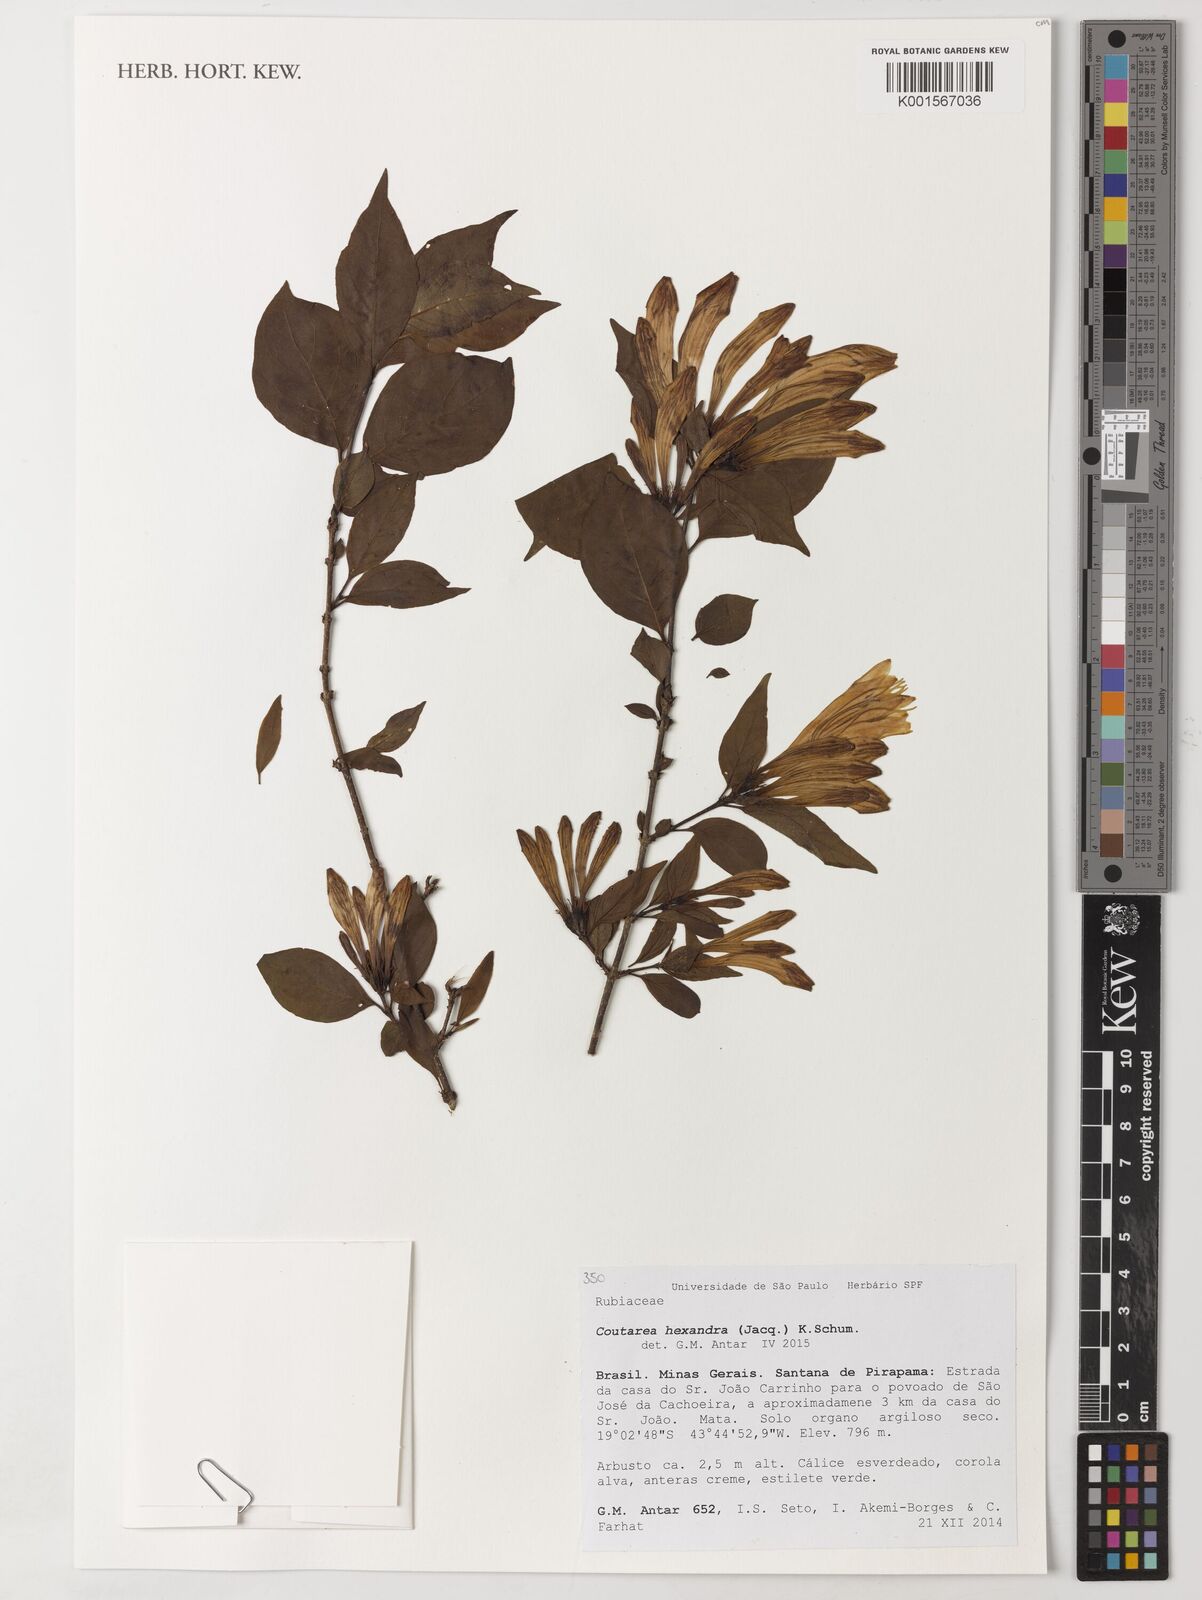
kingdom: Plantae
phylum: Tracheophyta
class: Magnoliopsida
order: Gentianales
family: Rubiaceae
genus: Coutarea
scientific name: Coutarea hexandra
